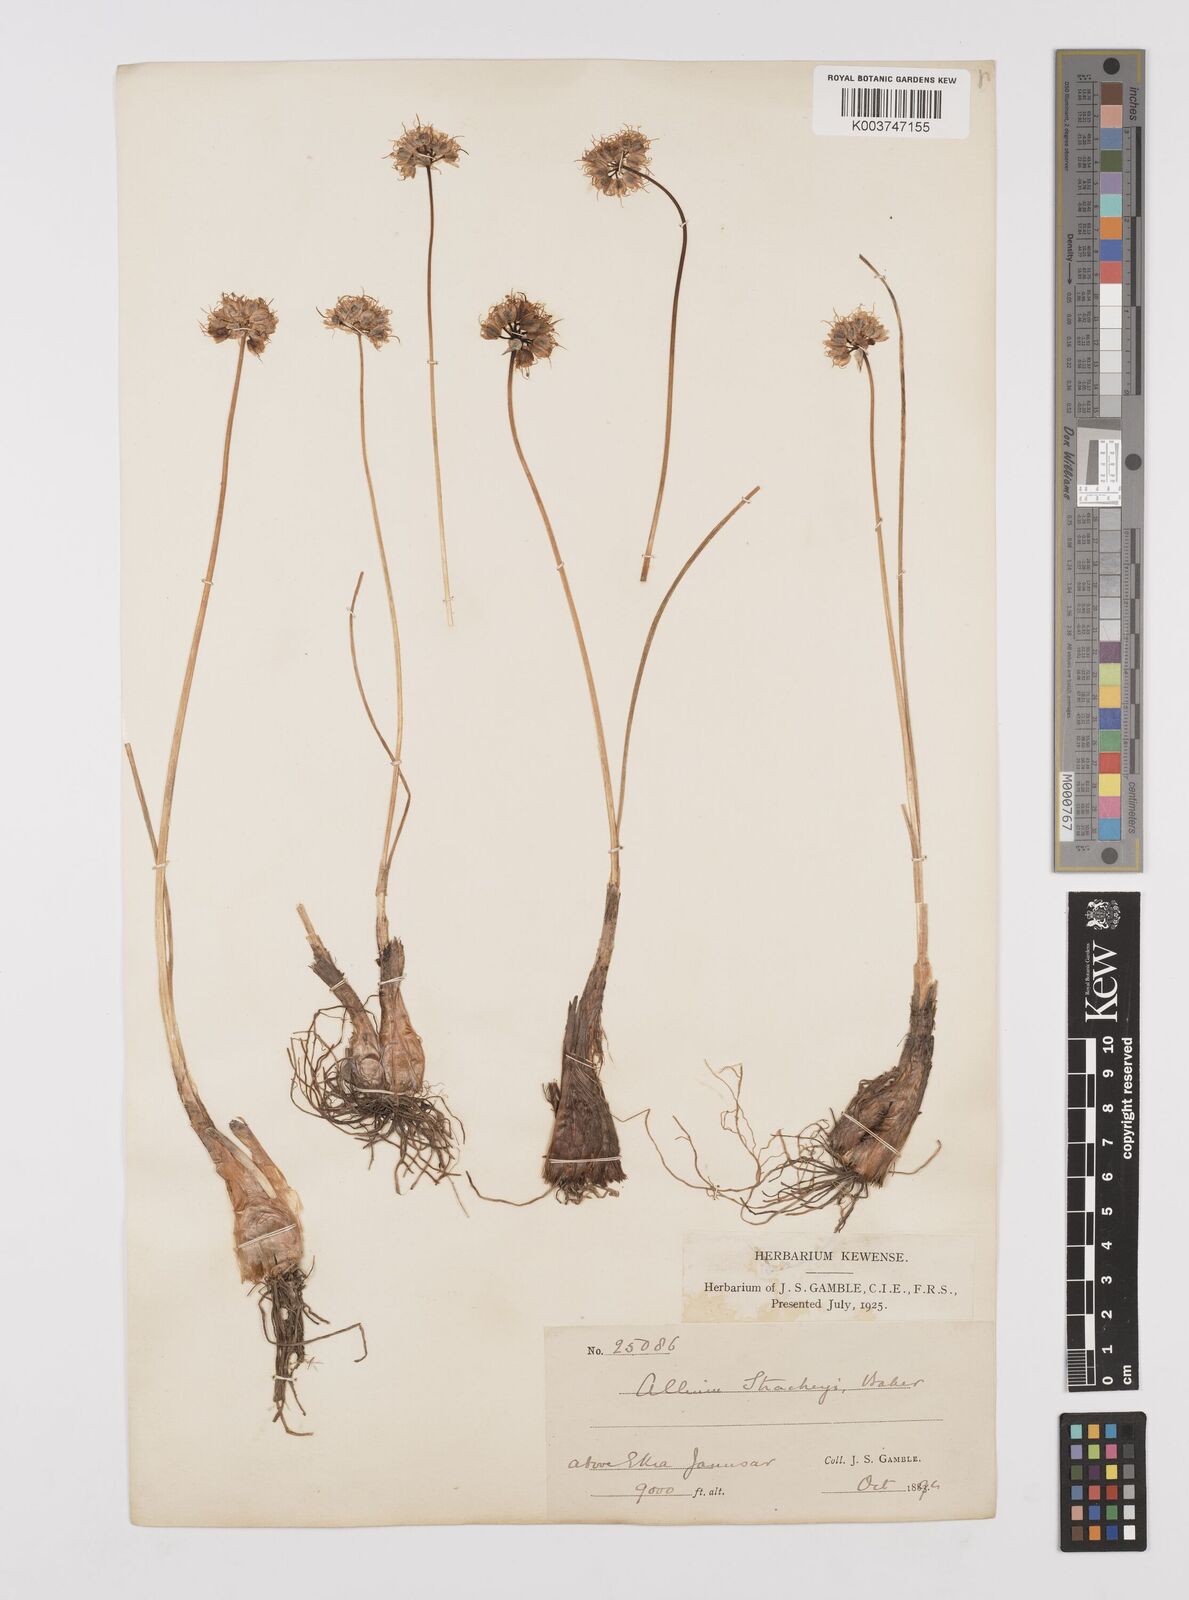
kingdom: Plantae
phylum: Tracheophyta
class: Liliopsida
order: Asparagales
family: Amaryllidaceae
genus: Allium
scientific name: Allium stracheyi
